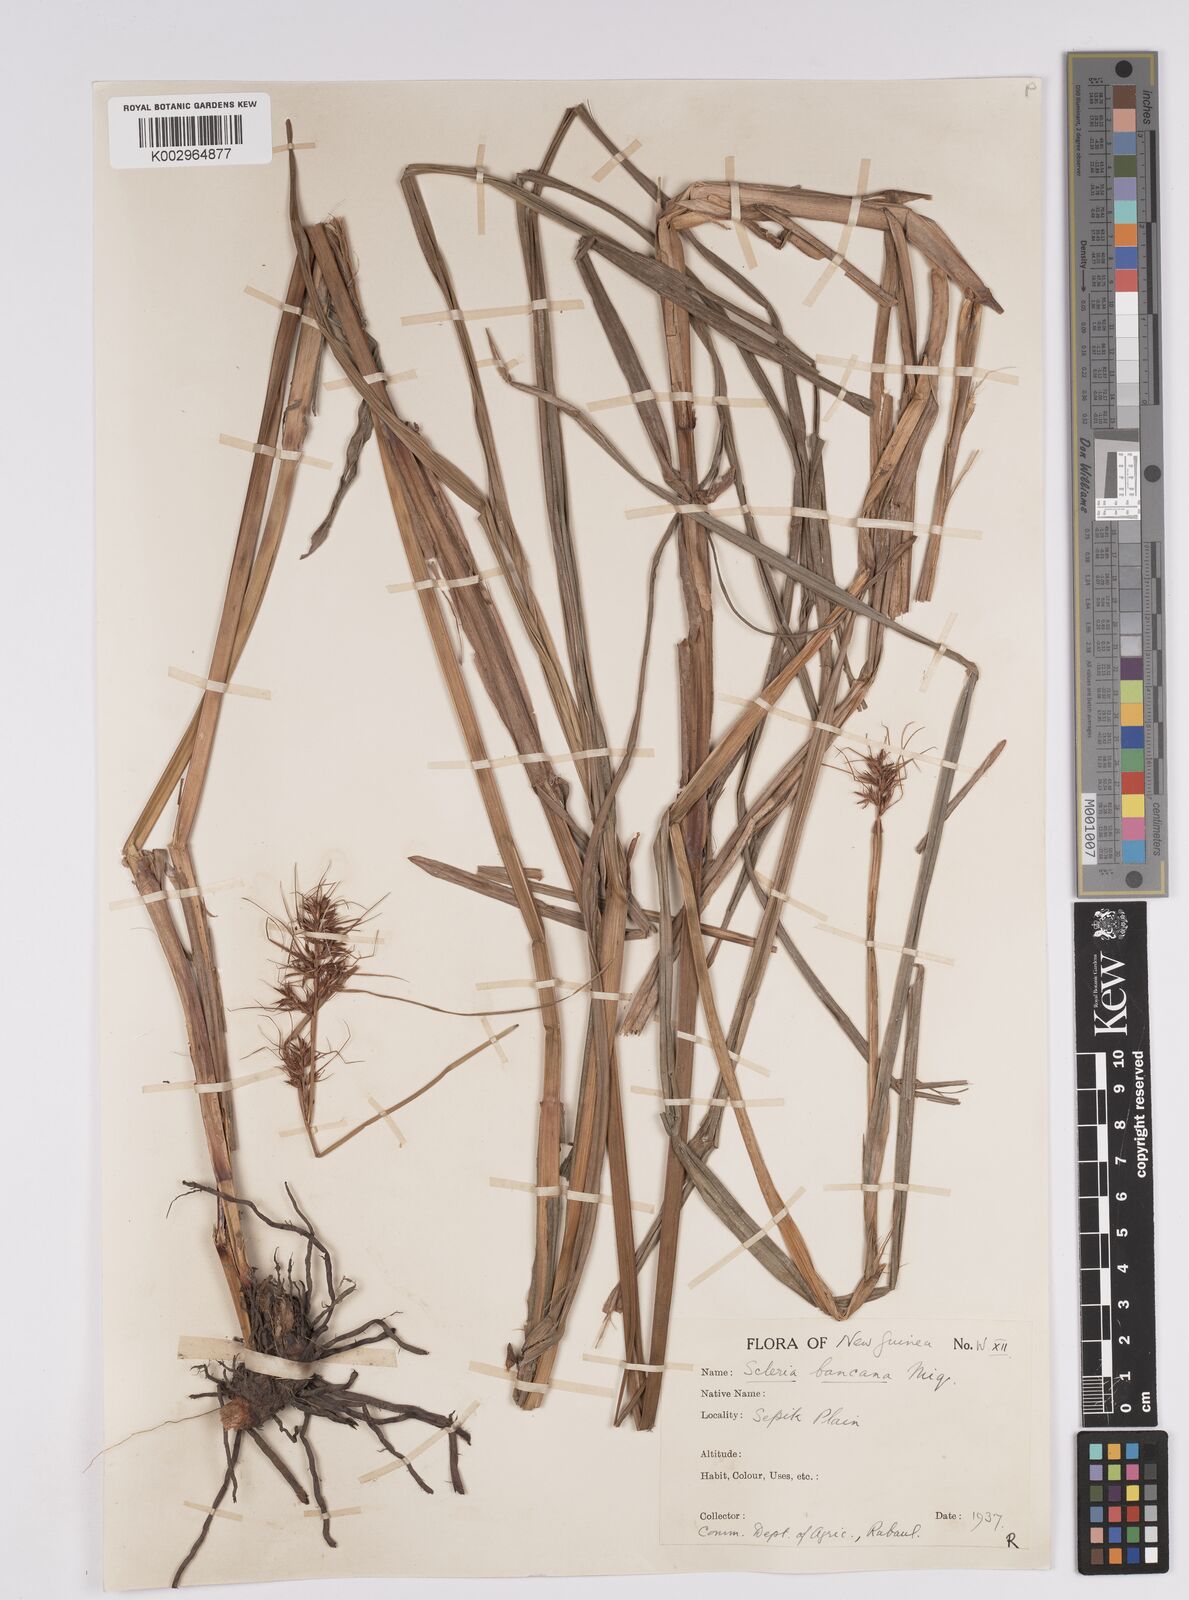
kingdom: Plantae
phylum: Tracheophyta
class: Liliopsida
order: Poales
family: Cyperaceae
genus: Scleria
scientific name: Scleria ciliaris
